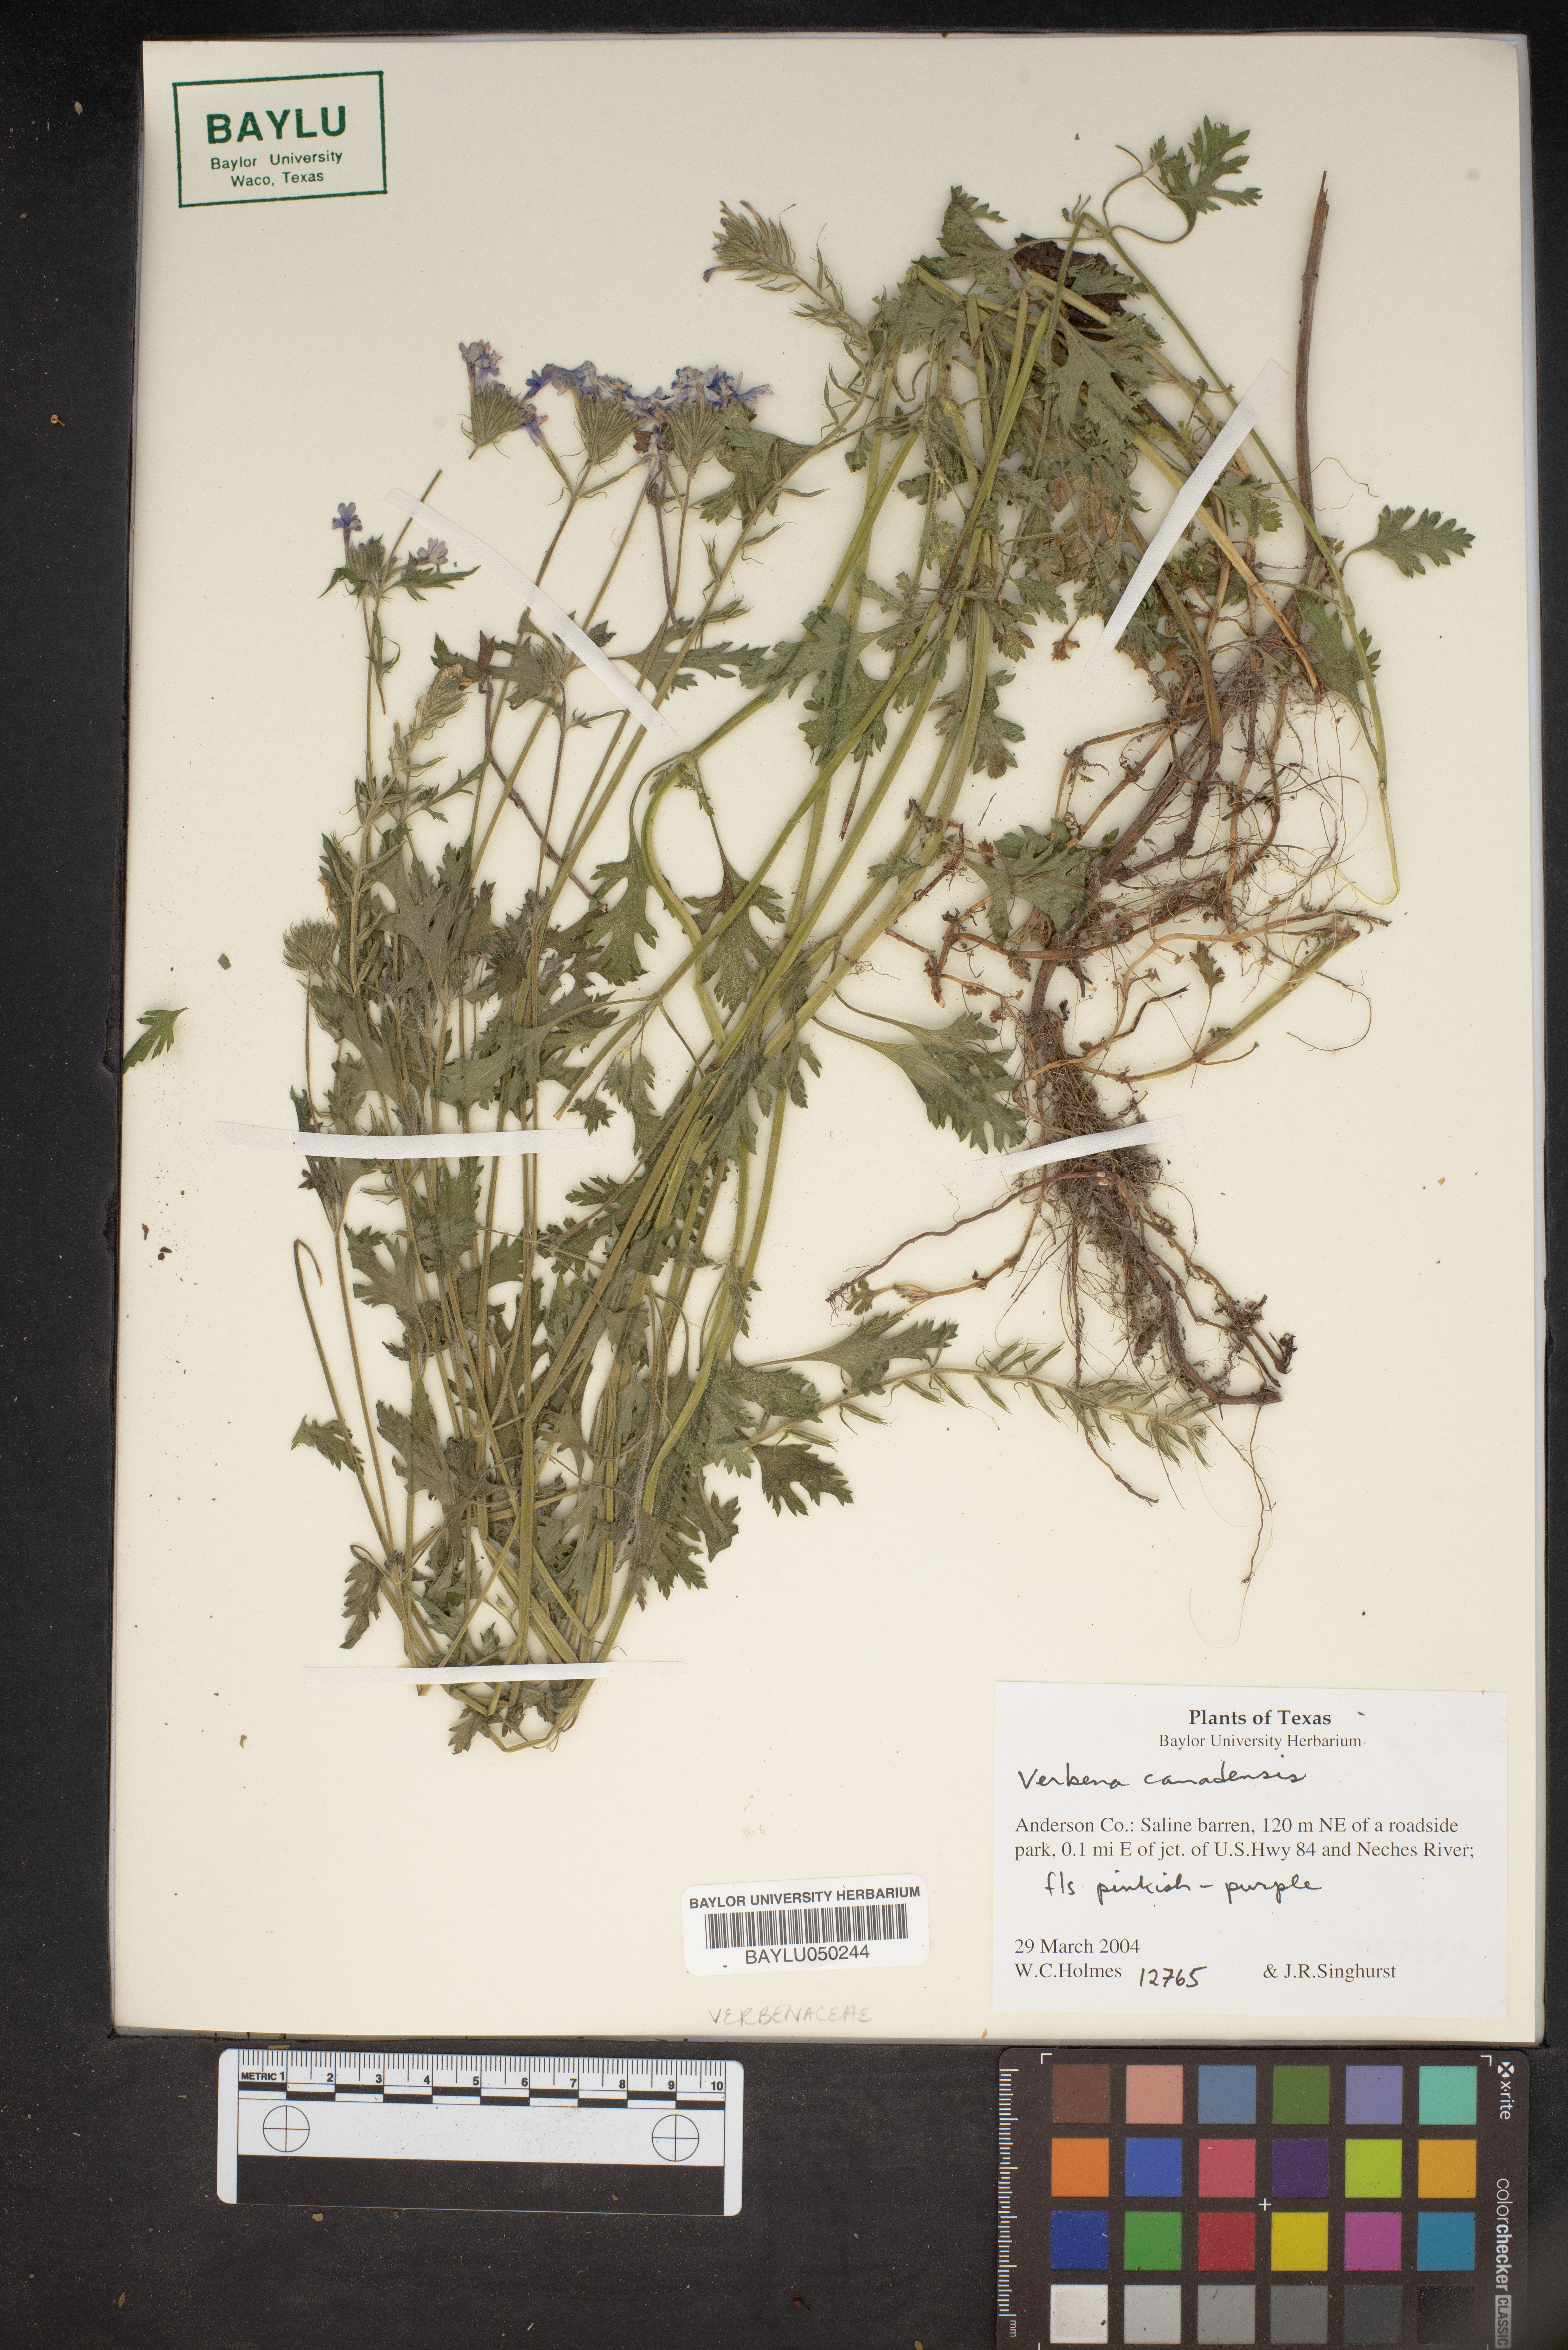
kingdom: Plantae
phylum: Tracheophyta
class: Magnoliopsida
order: Lamiales
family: Verbenaceae
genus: Verbena
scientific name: Verbena canadensis
